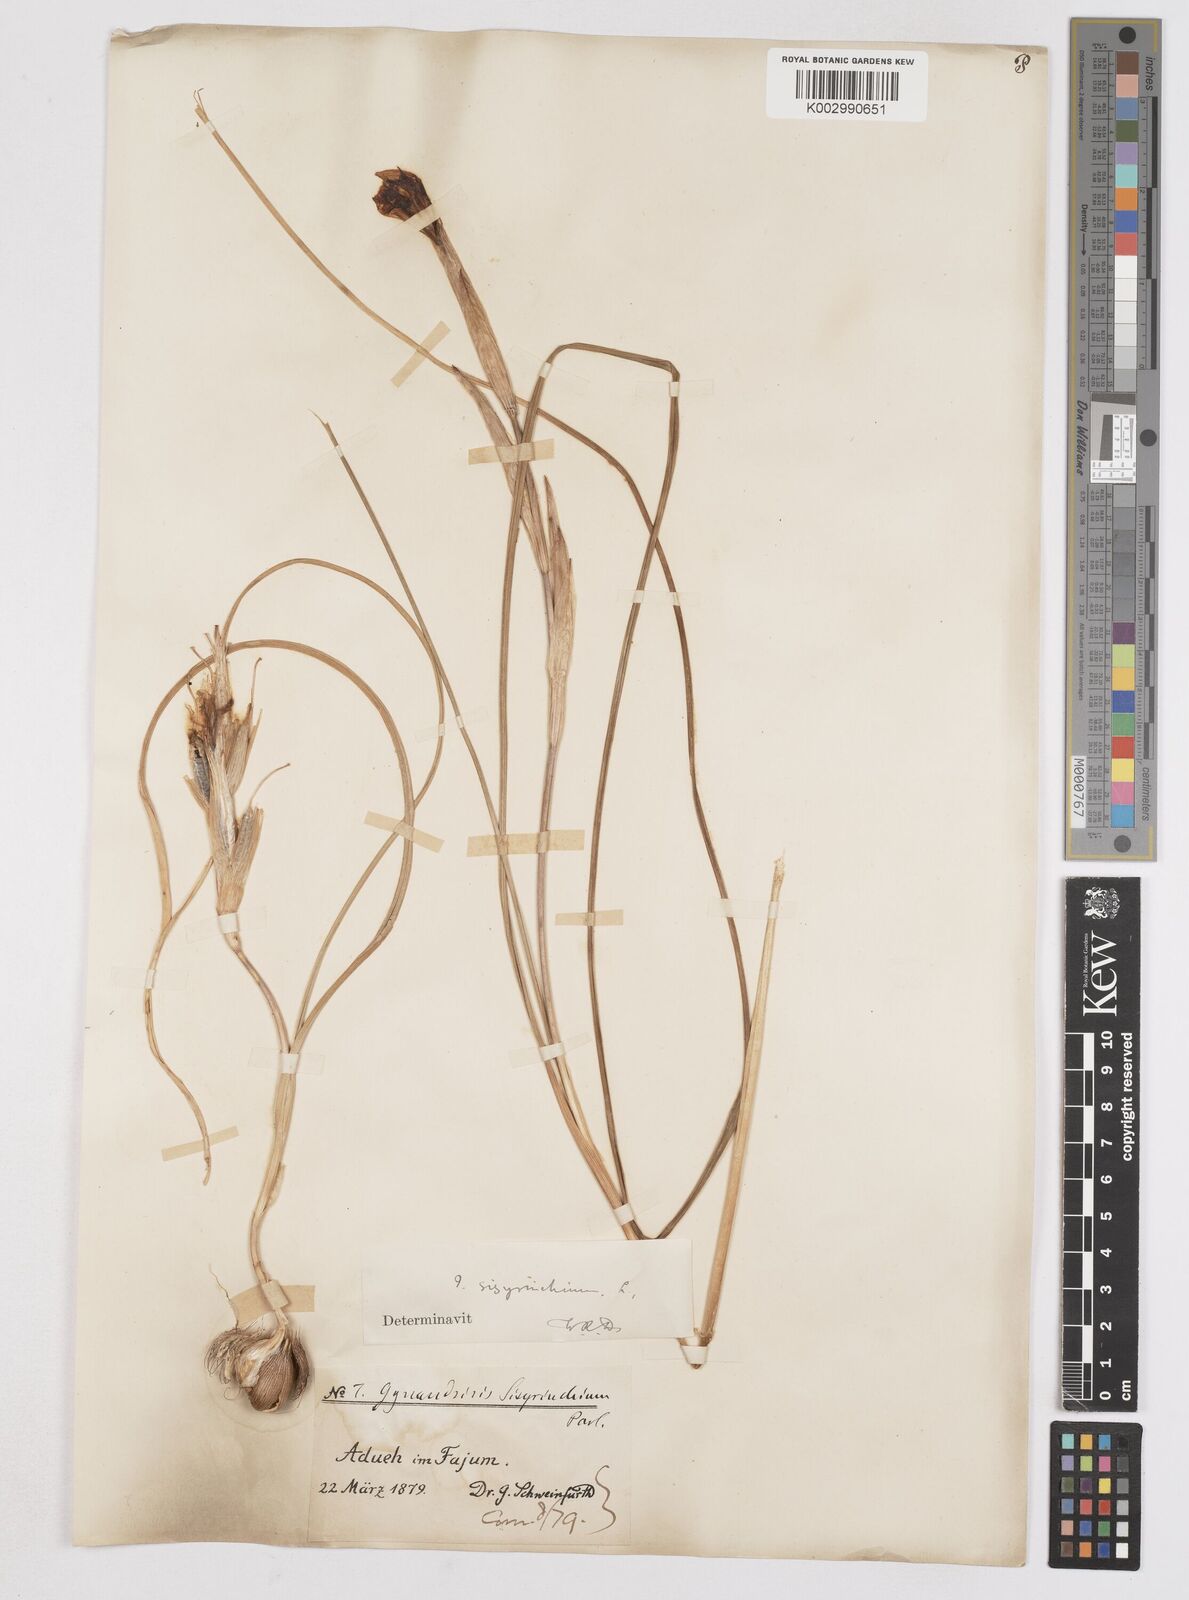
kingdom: Plantae
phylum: Tracheophyta
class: Liliopsida
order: Asparagales
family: Iridaceae
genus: Moraea
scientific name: Moraea sisyrinchium
